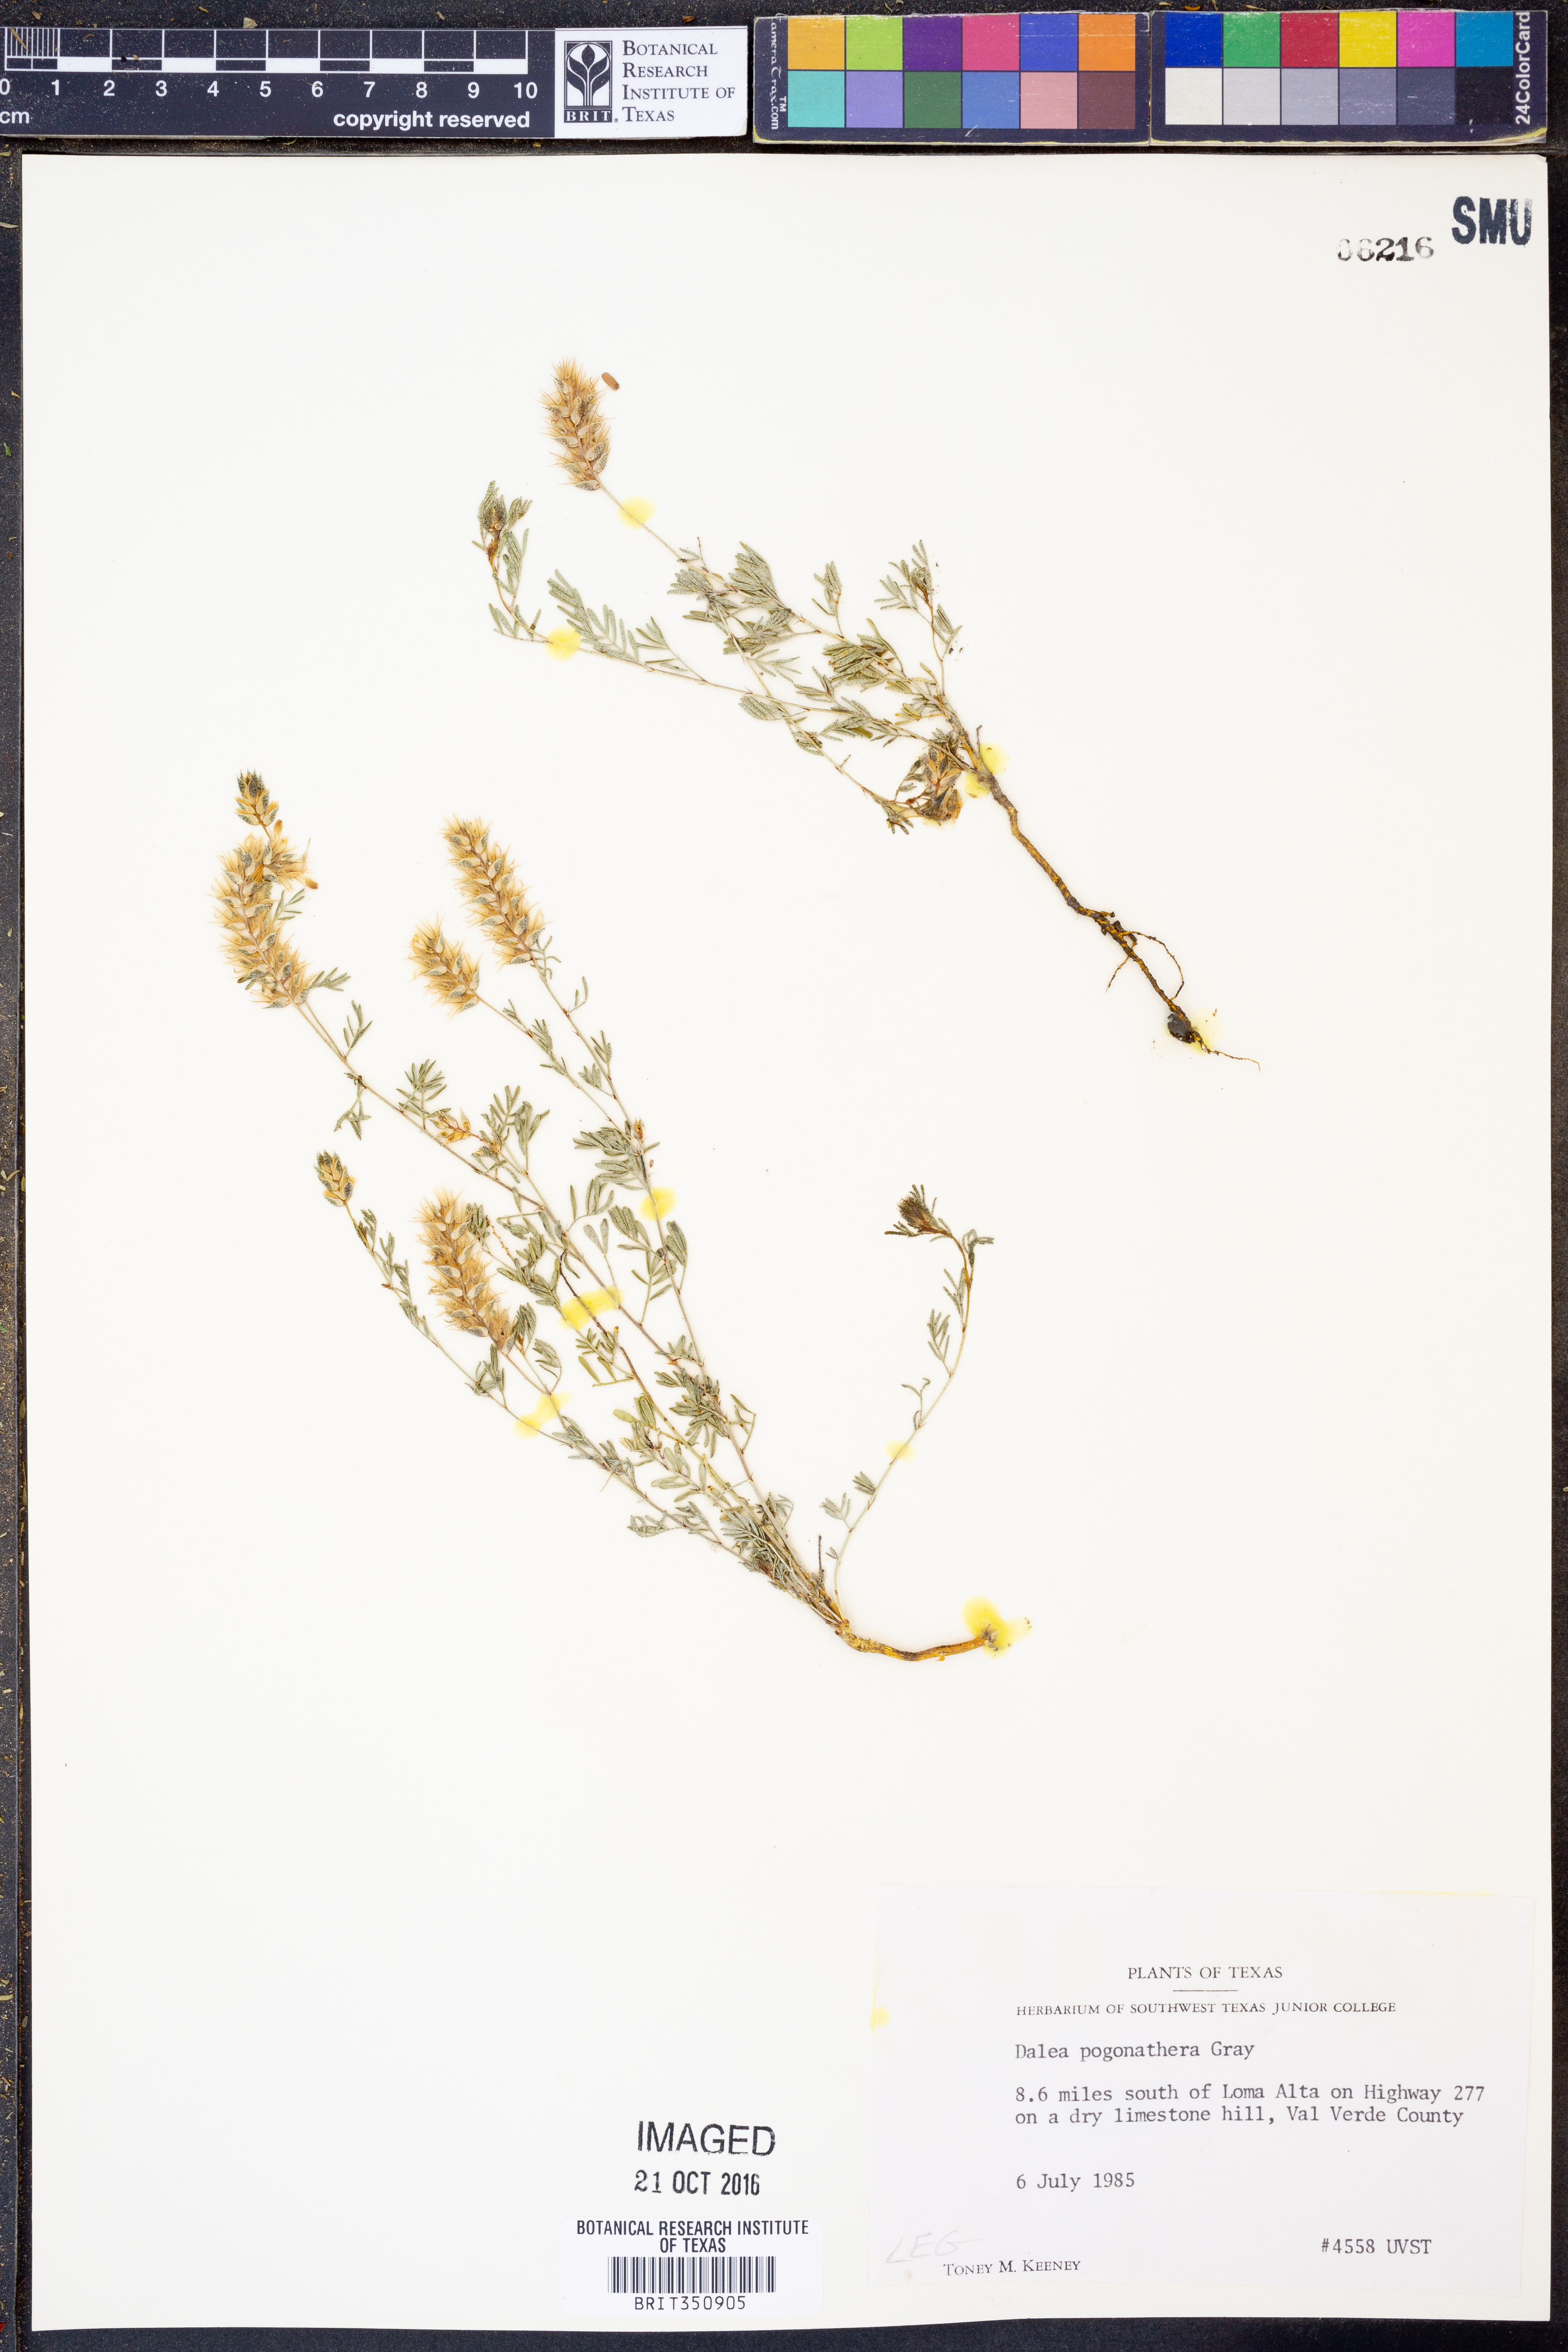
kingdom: Plantae
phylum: Tracheophyta
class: Magnoliopsida
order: Fabales
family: Fabaceae
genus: Dalea
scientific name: Dalea pogonathera
